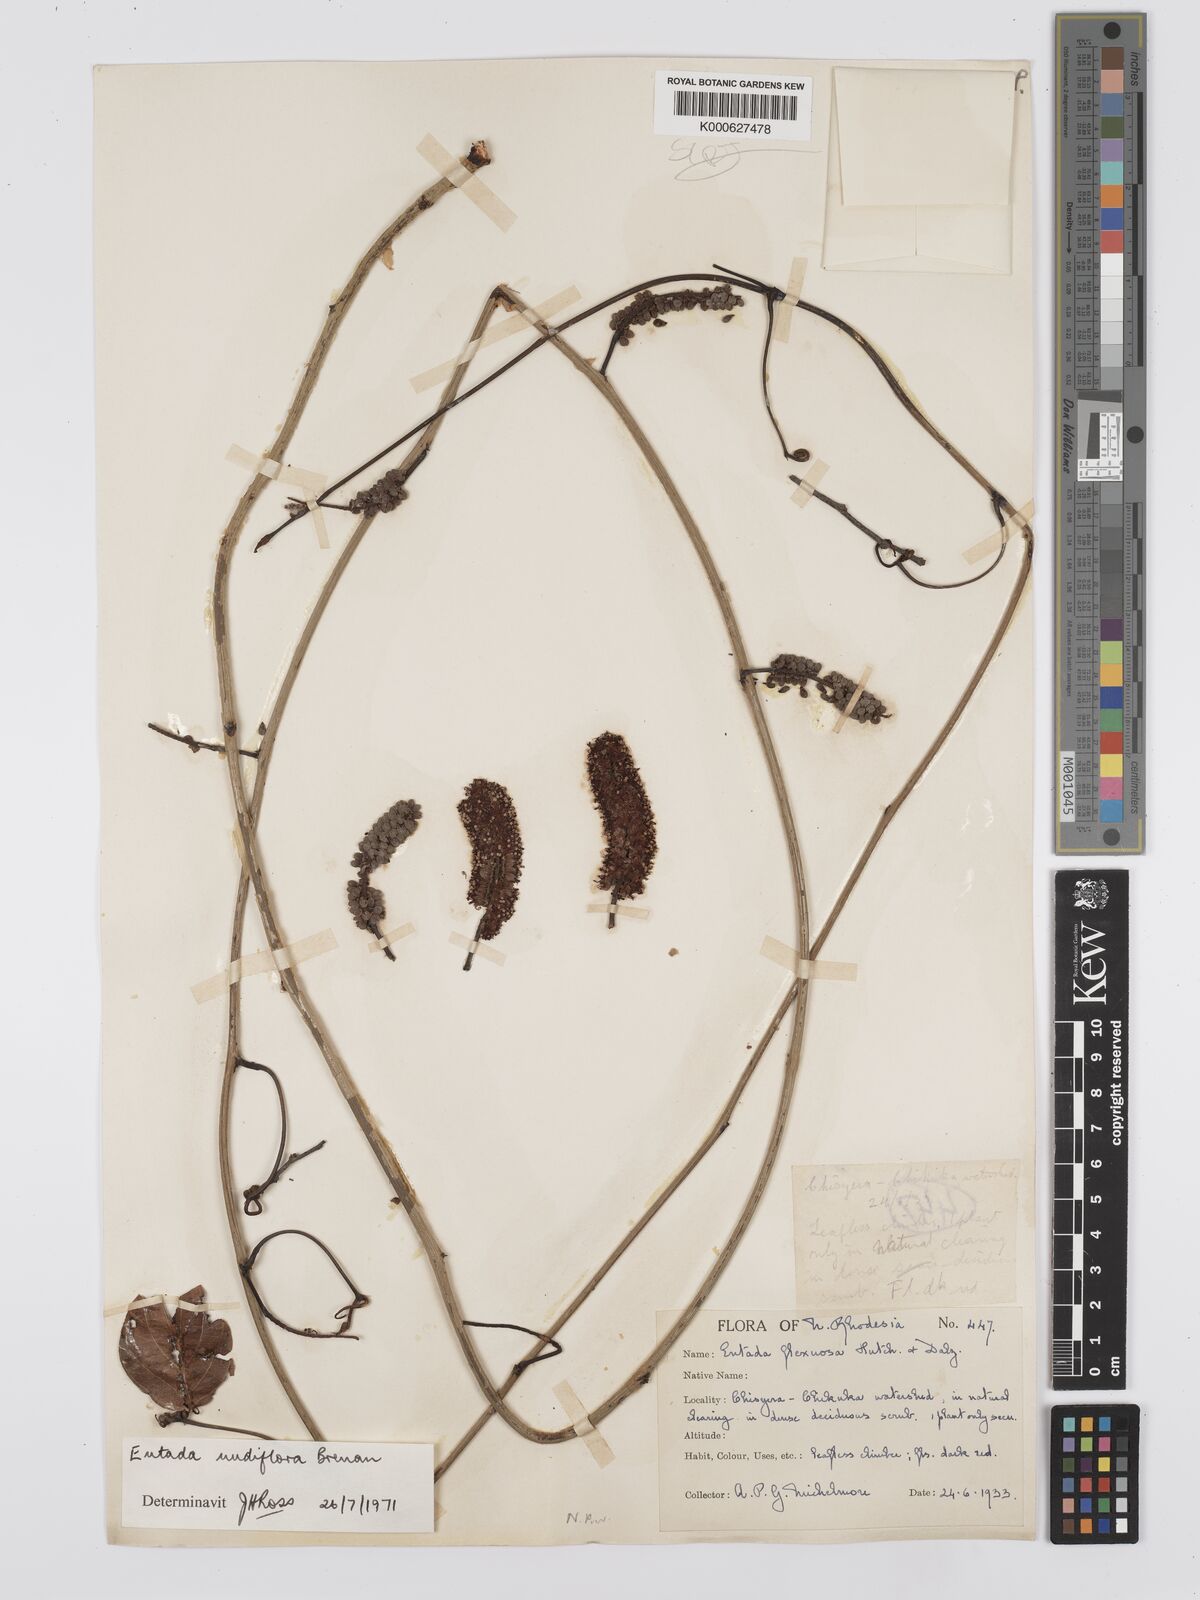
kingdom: Plantae
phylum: Tracheophyta
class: Magnoliopsida
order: Fabales
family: Fabaceae
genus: Entada
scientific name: Entada nudiflora
